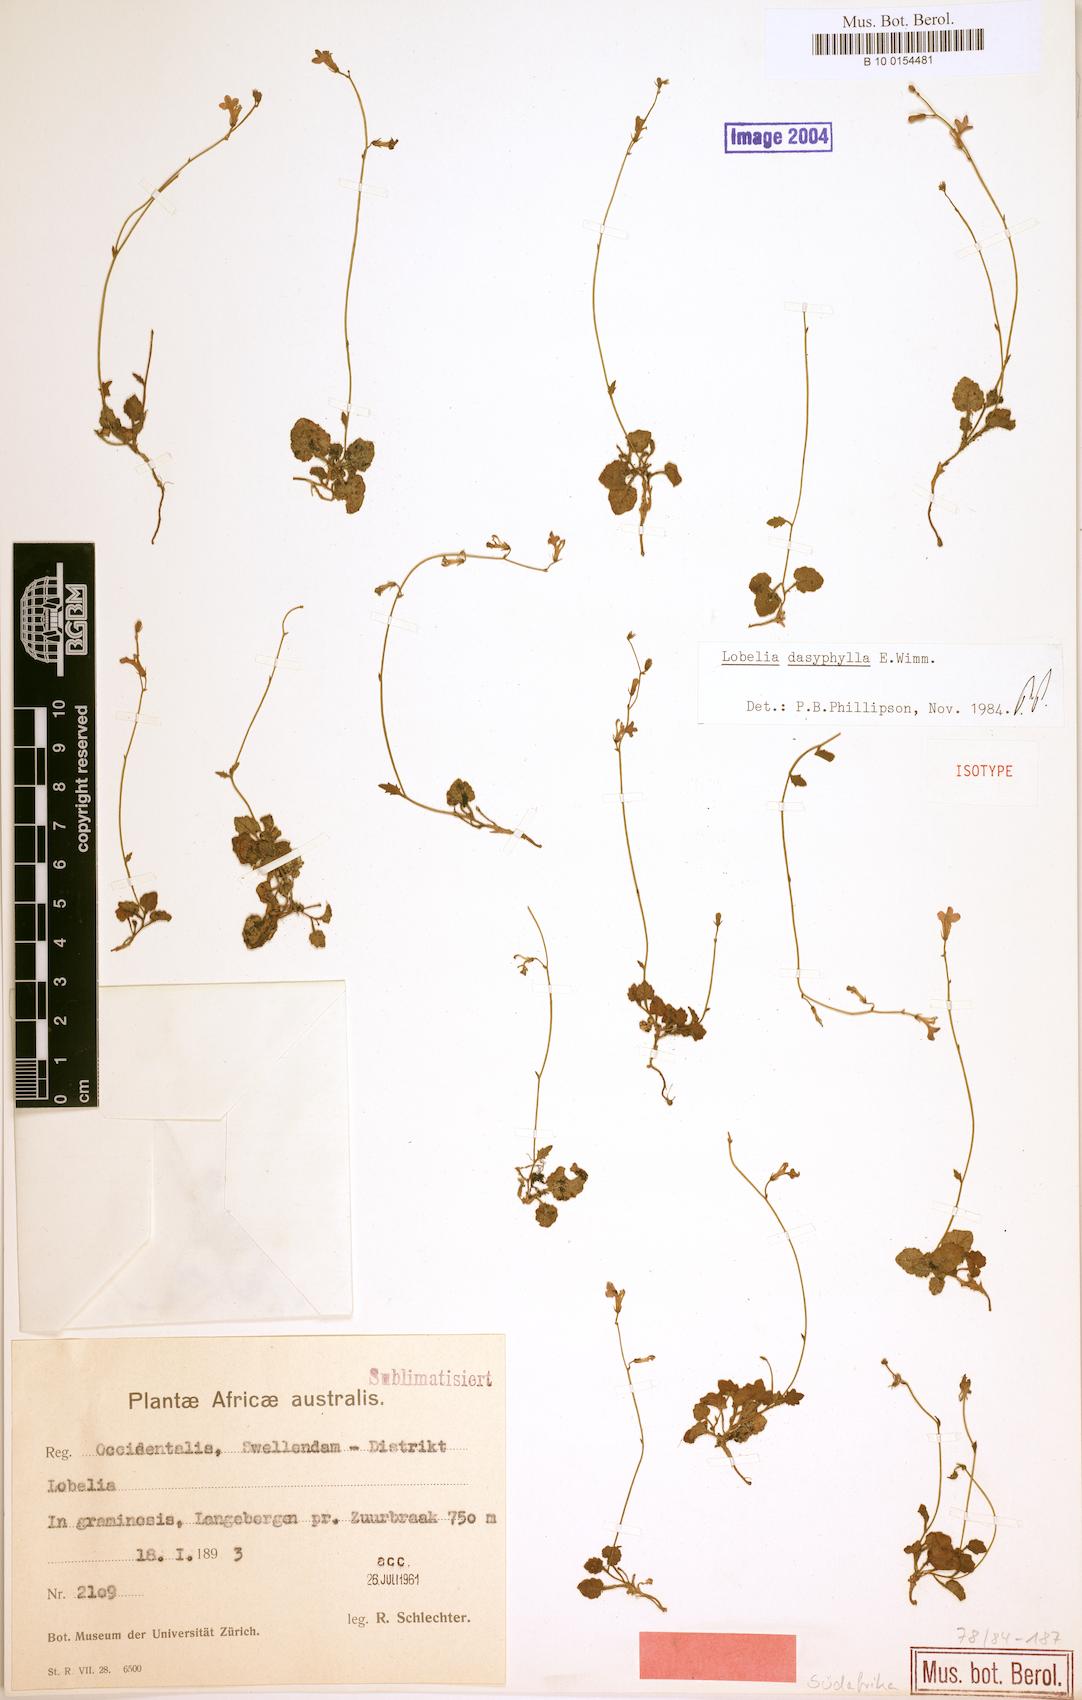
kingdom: Plantae
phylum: Tracheophyta
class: Magnoliopsida
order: Asterales
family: Campanulaceae
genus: Lobelia
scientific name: Lobelia dasyphylla
